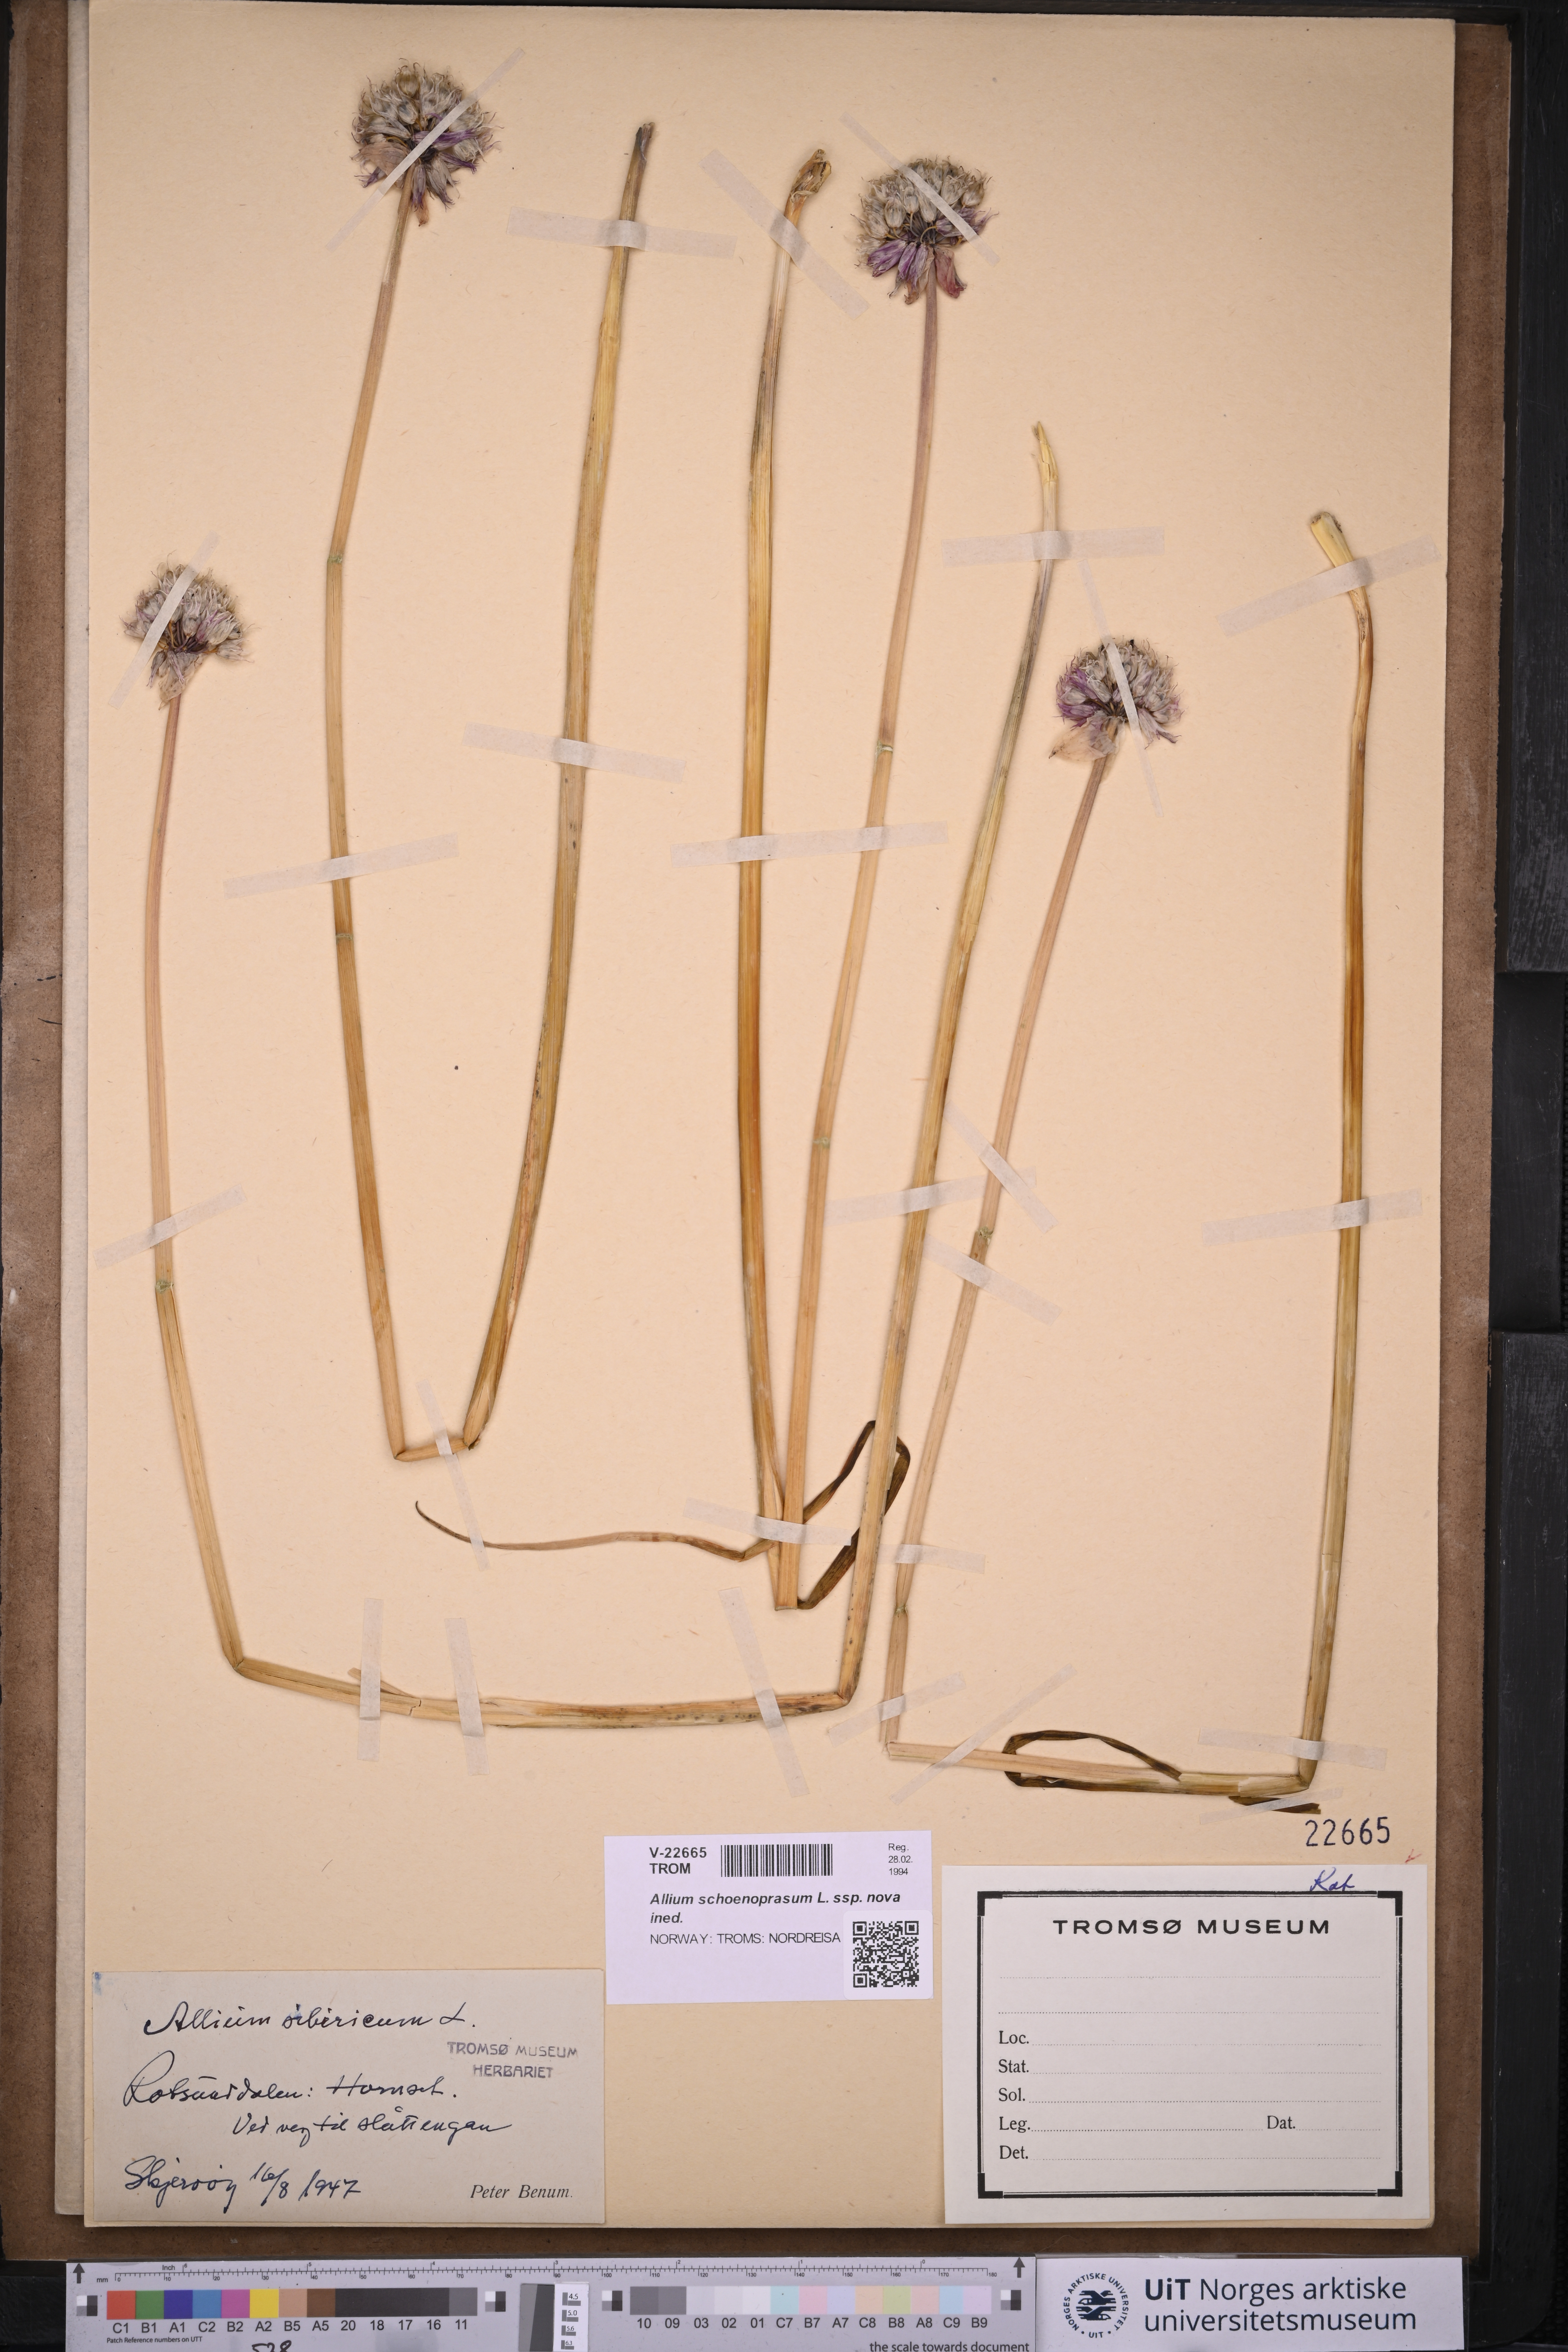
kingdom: Plantae
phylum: Tracheophyta
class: Liliopsida
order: Asparagales
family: Amaryllidaceae
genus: Allium
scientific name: Allium schoenoprasum
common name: Chives
